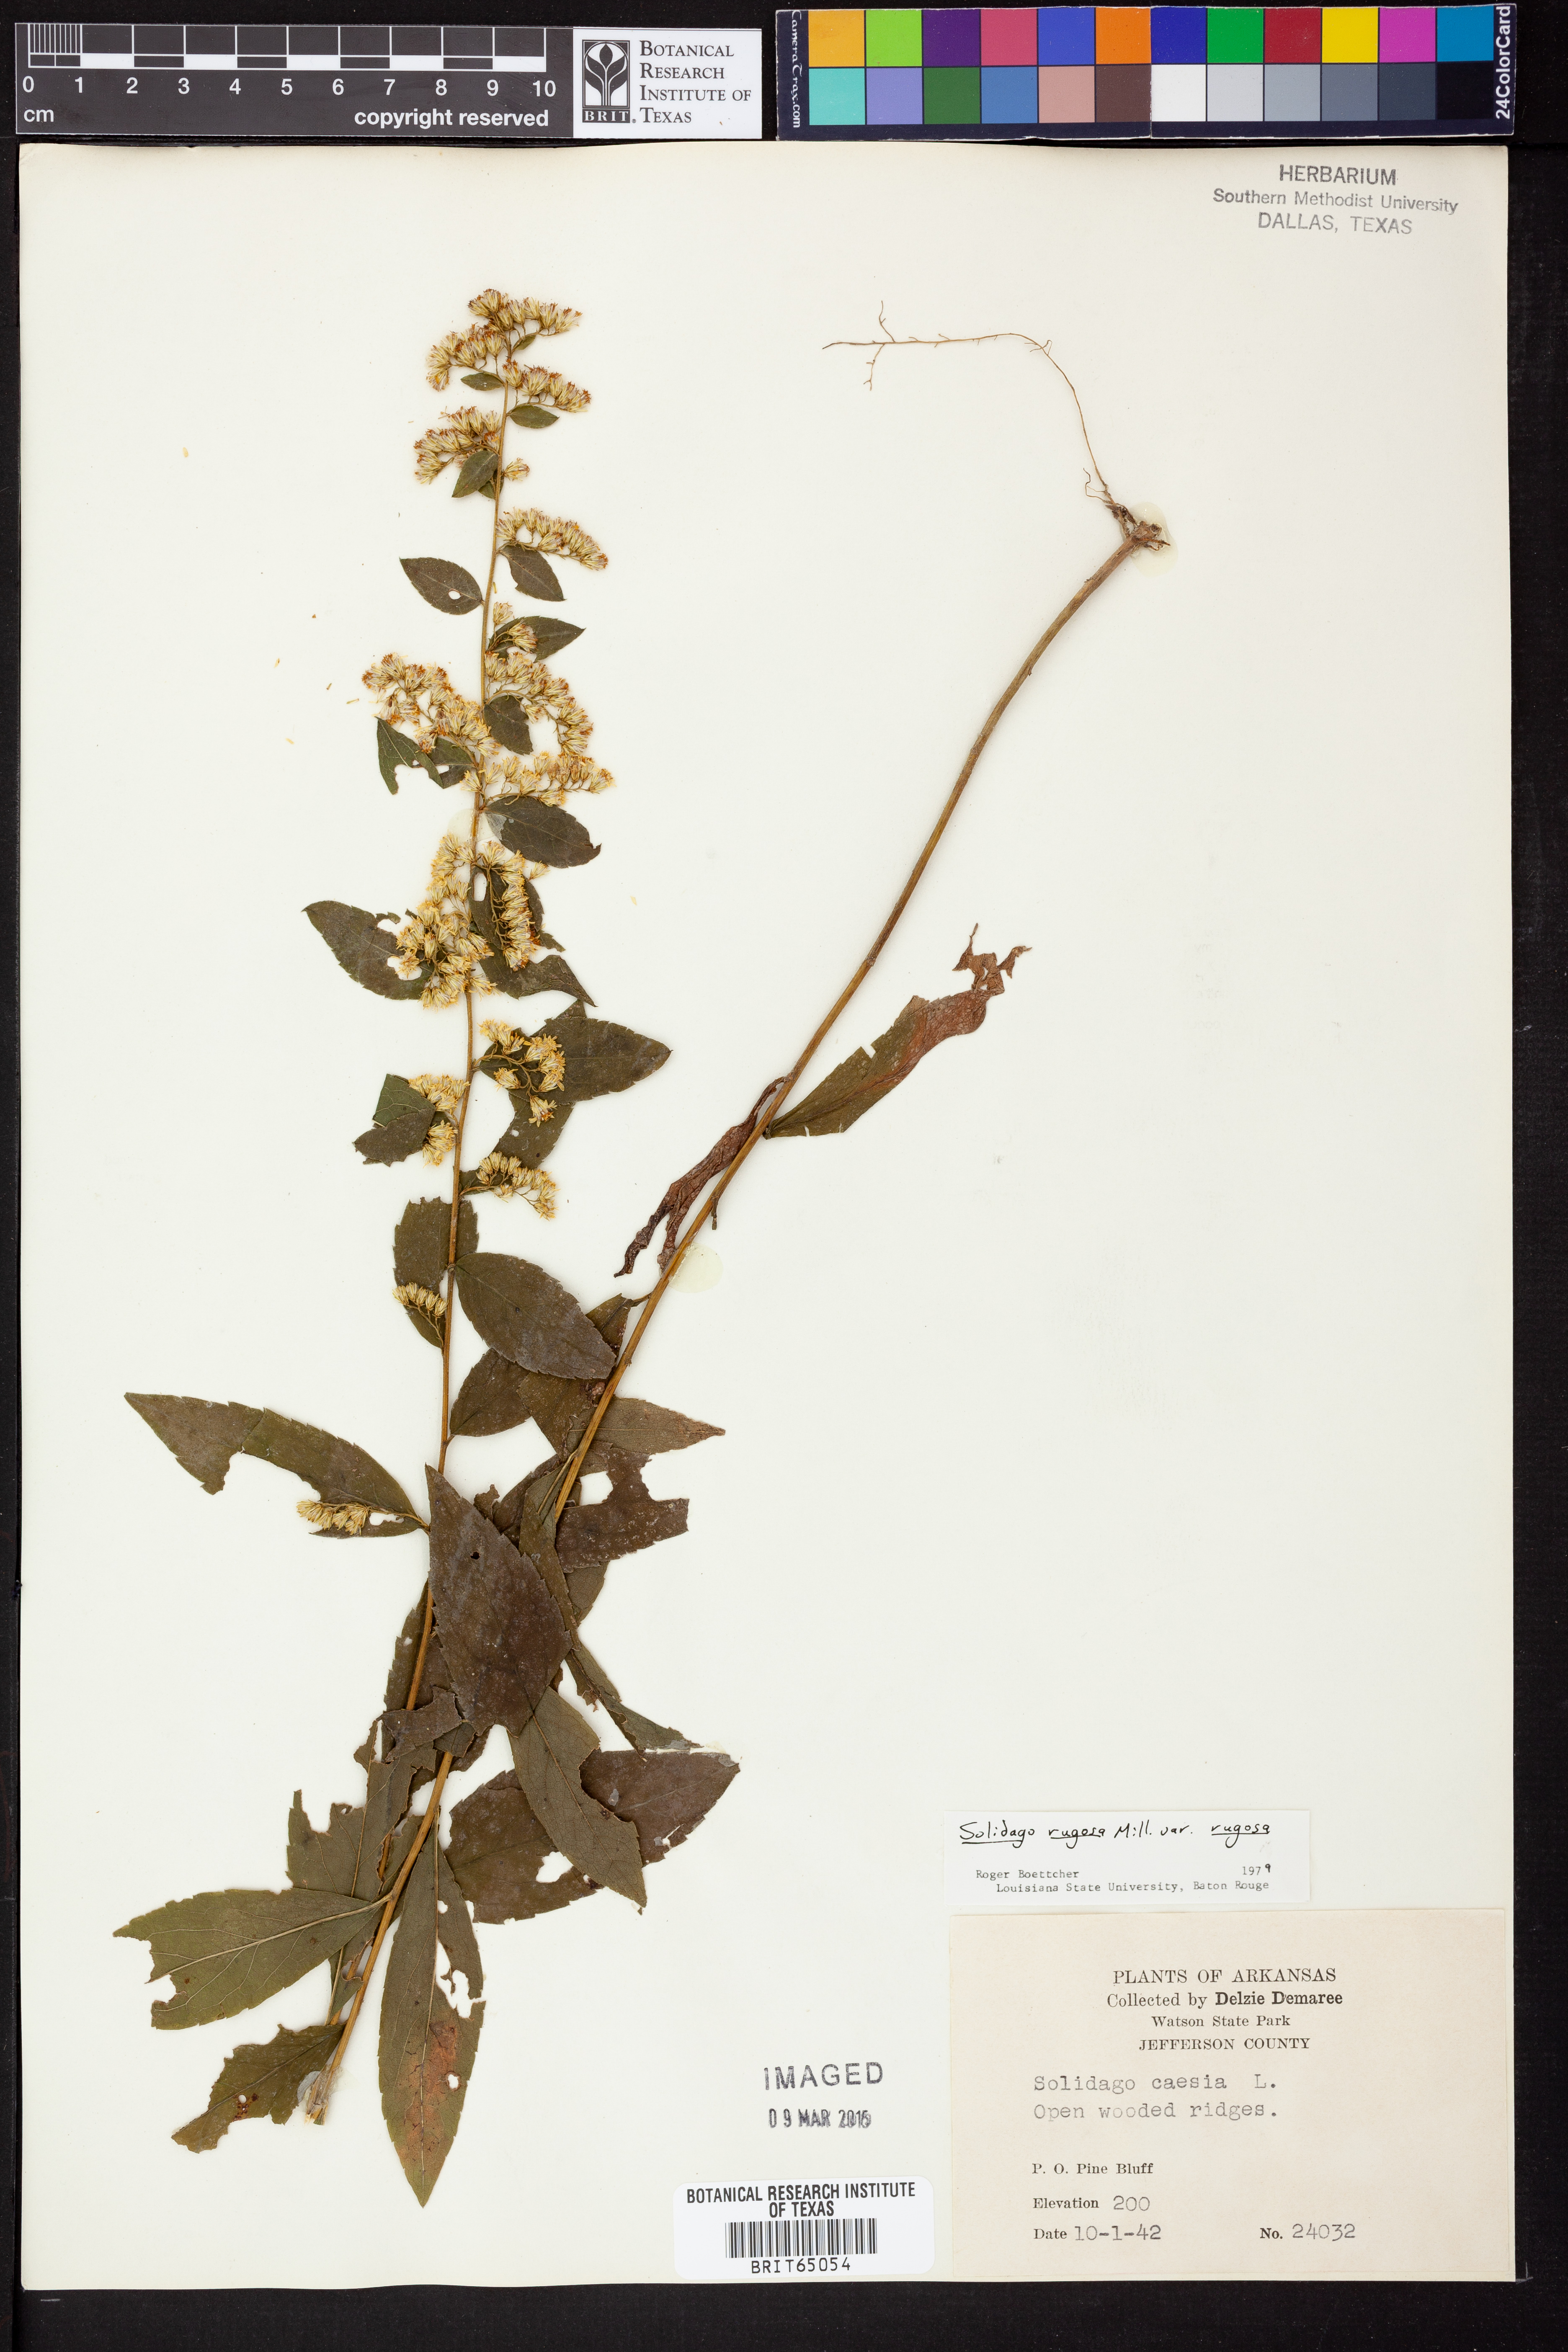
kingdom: Plantae
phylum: Tracheophyta
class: Magnoliopsida
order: Asterales
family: Asteraceae
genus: Solidago
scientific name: Solidago ouachitensis
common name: Ouachita mountains goldenrod
